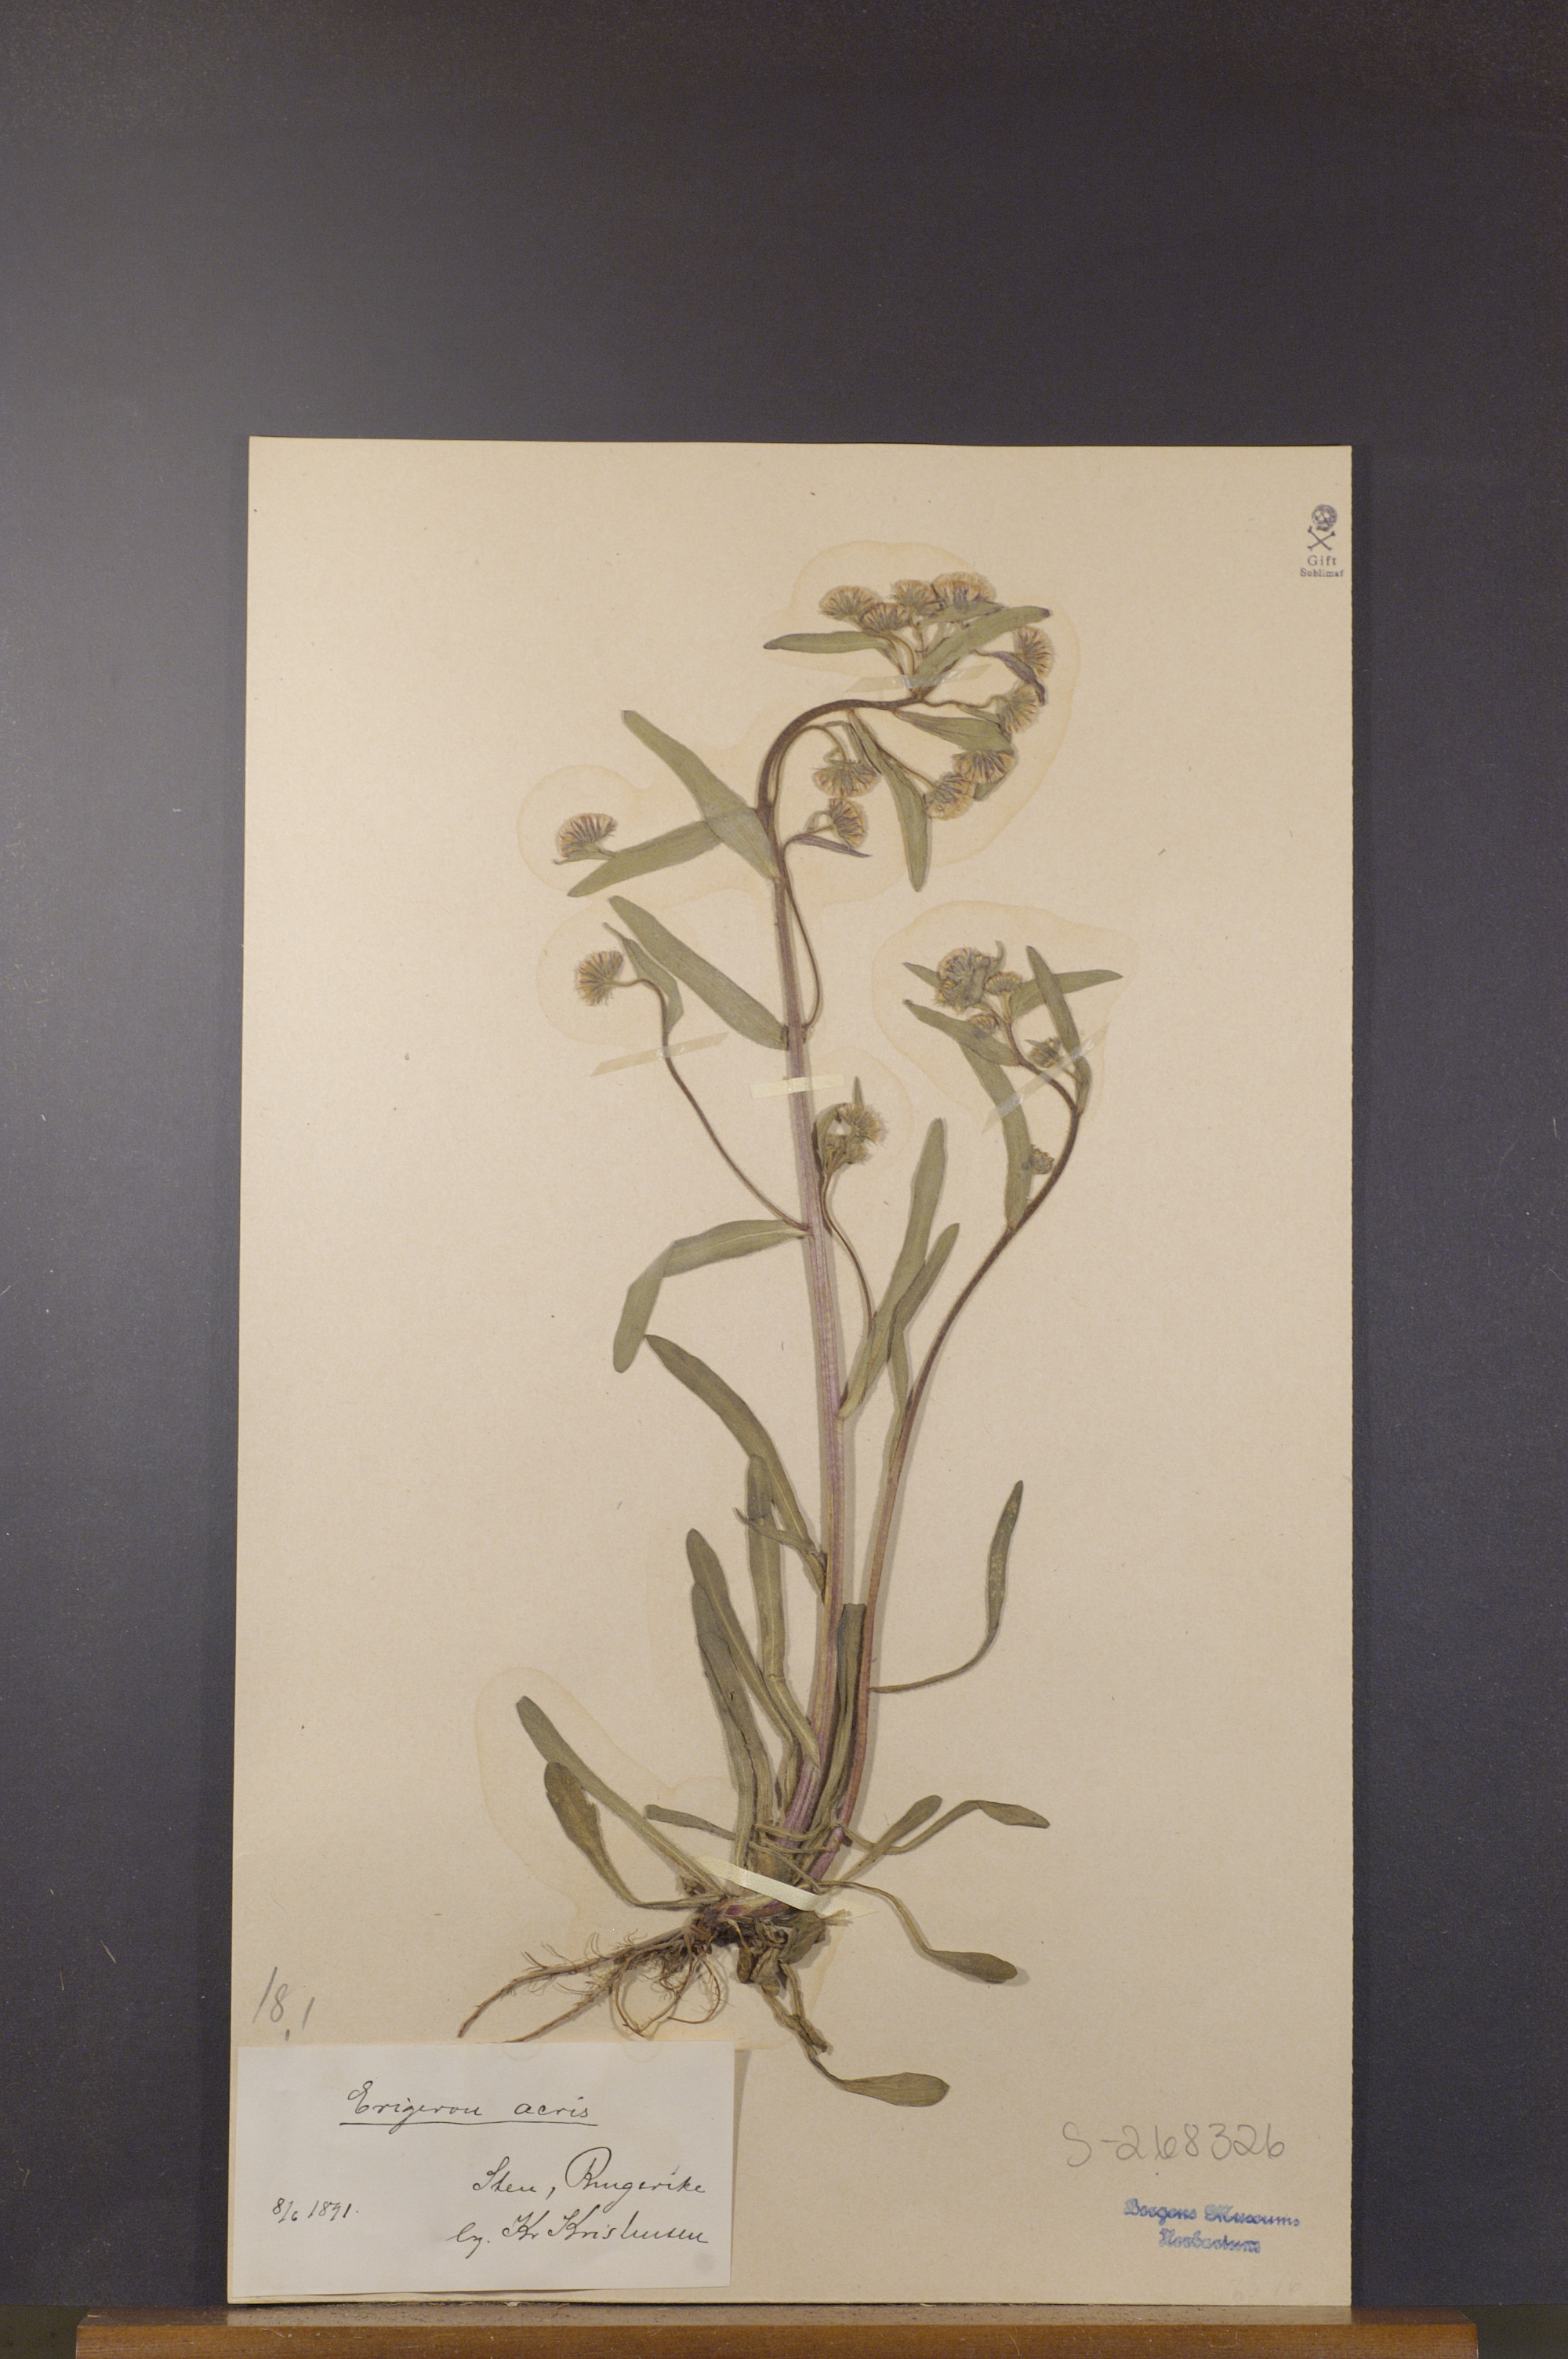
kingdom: Plantae
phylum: Tracheophyta
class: Magnoliopsida
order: Asterales
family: Asteraceae
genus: Erigeron
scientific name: Erigeron acris
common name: Blue fleabane
